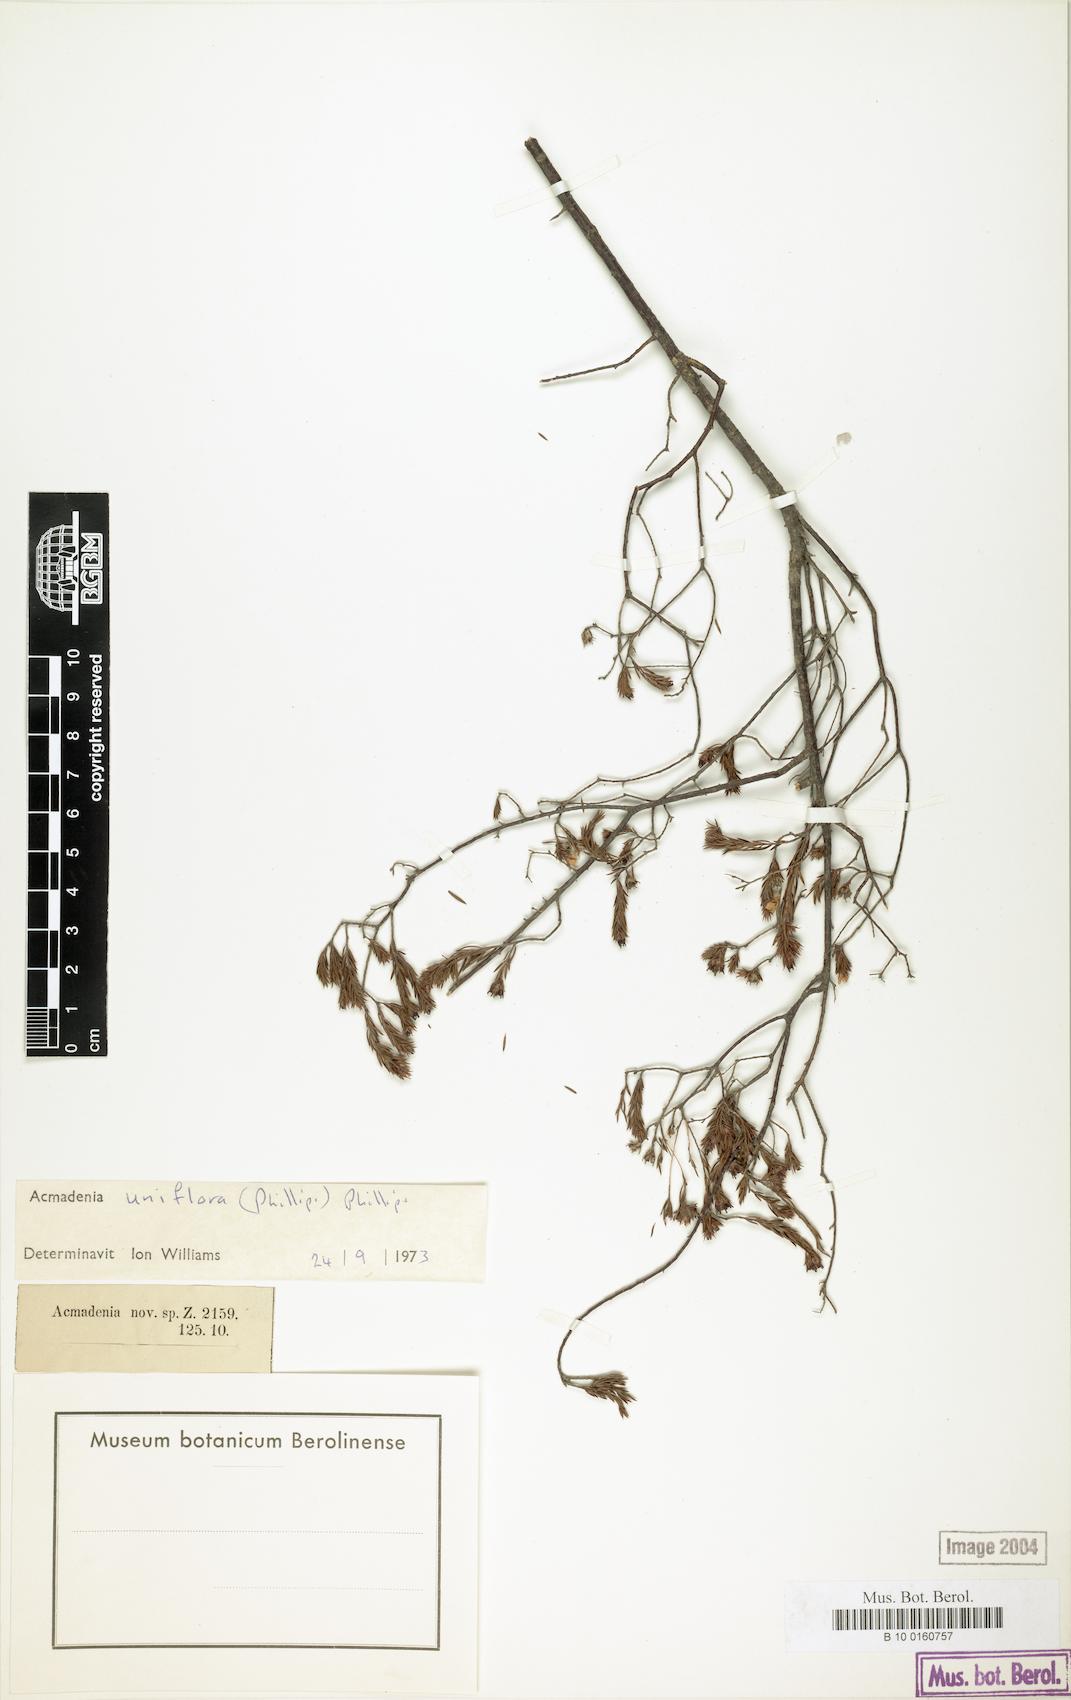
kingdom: Plantae
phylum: Tracheophyta
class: Magnoliopsida
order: Sapindales
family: Rutaceae
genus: Acmadenia
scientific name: Acmadenia
